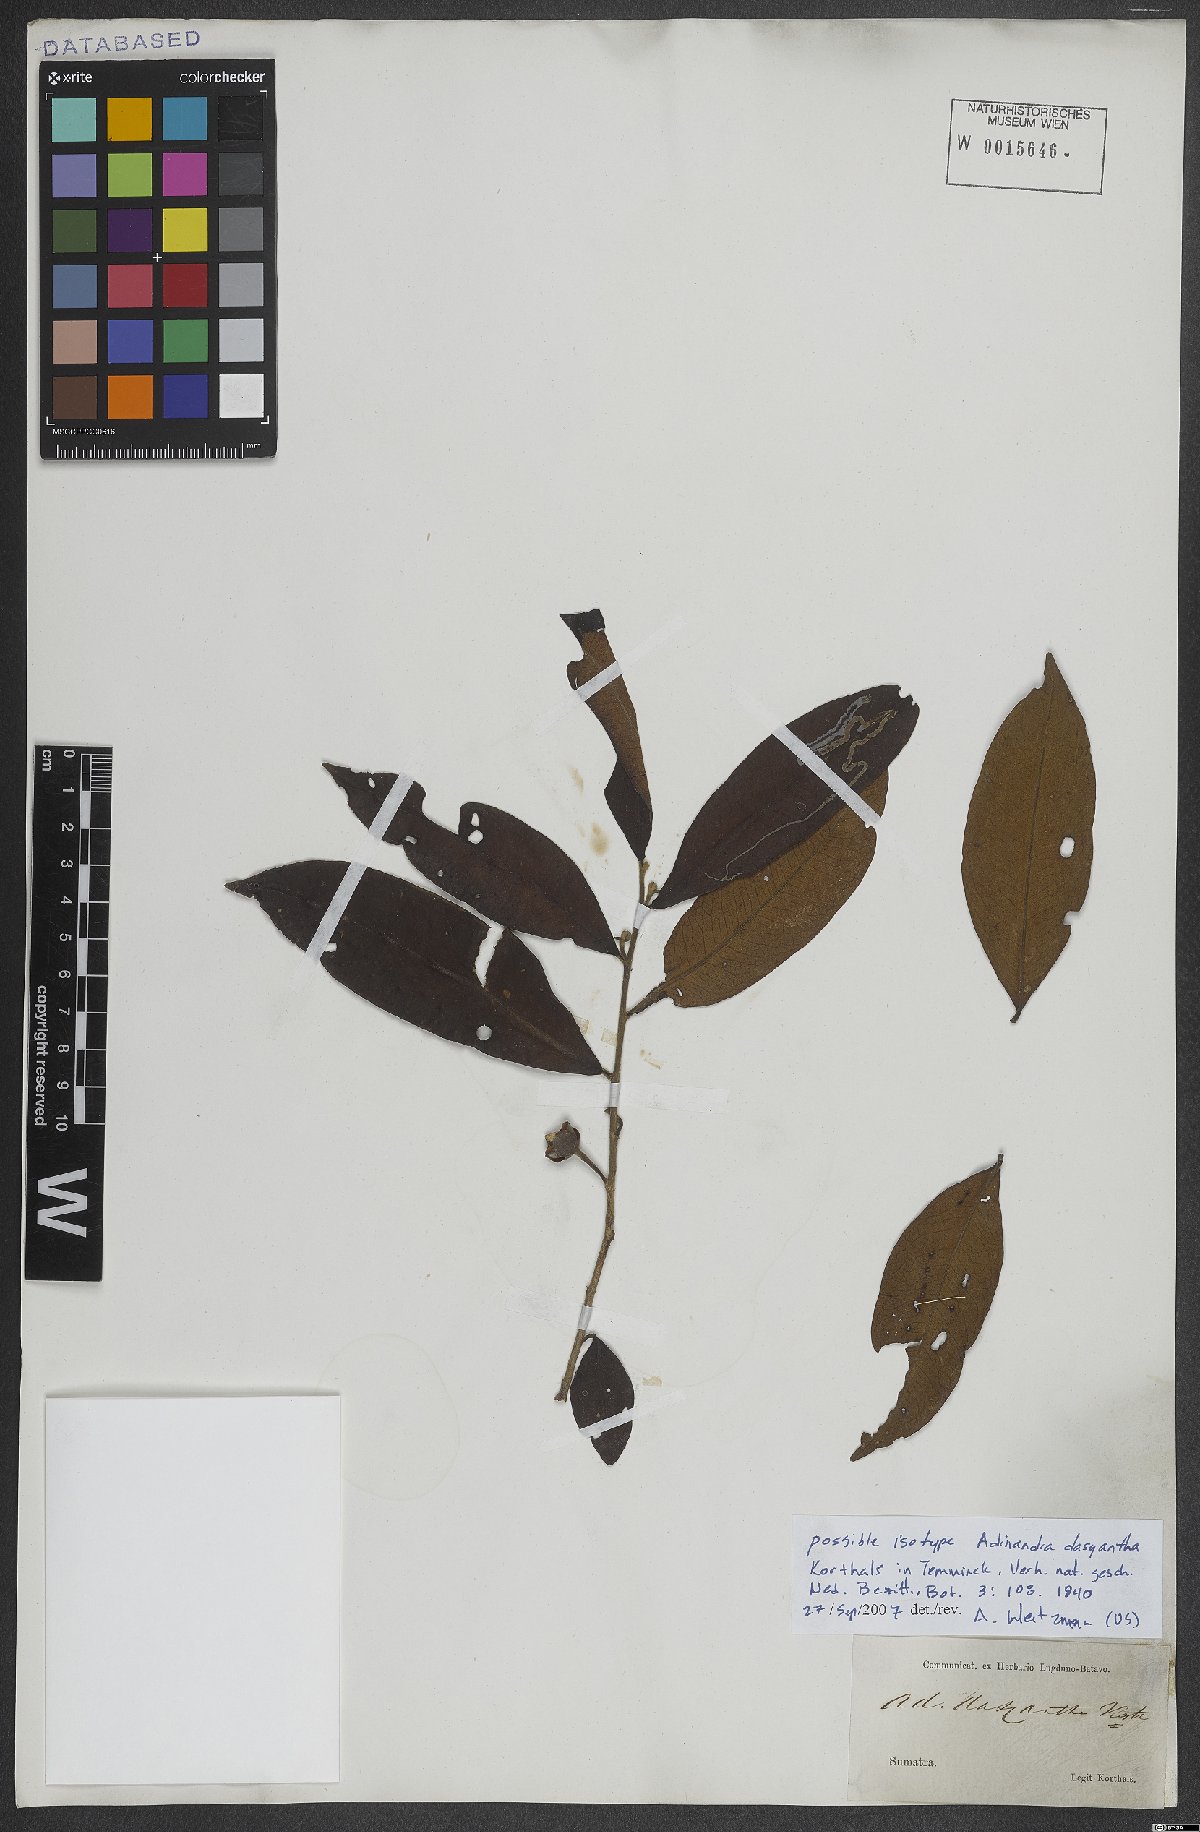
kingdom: Plantae
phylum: Tracheophyta
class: Magnoliopsida
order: Ericales
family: Pentaphylacaceae
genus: Adinandra
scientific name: Adinandra dasyantha
